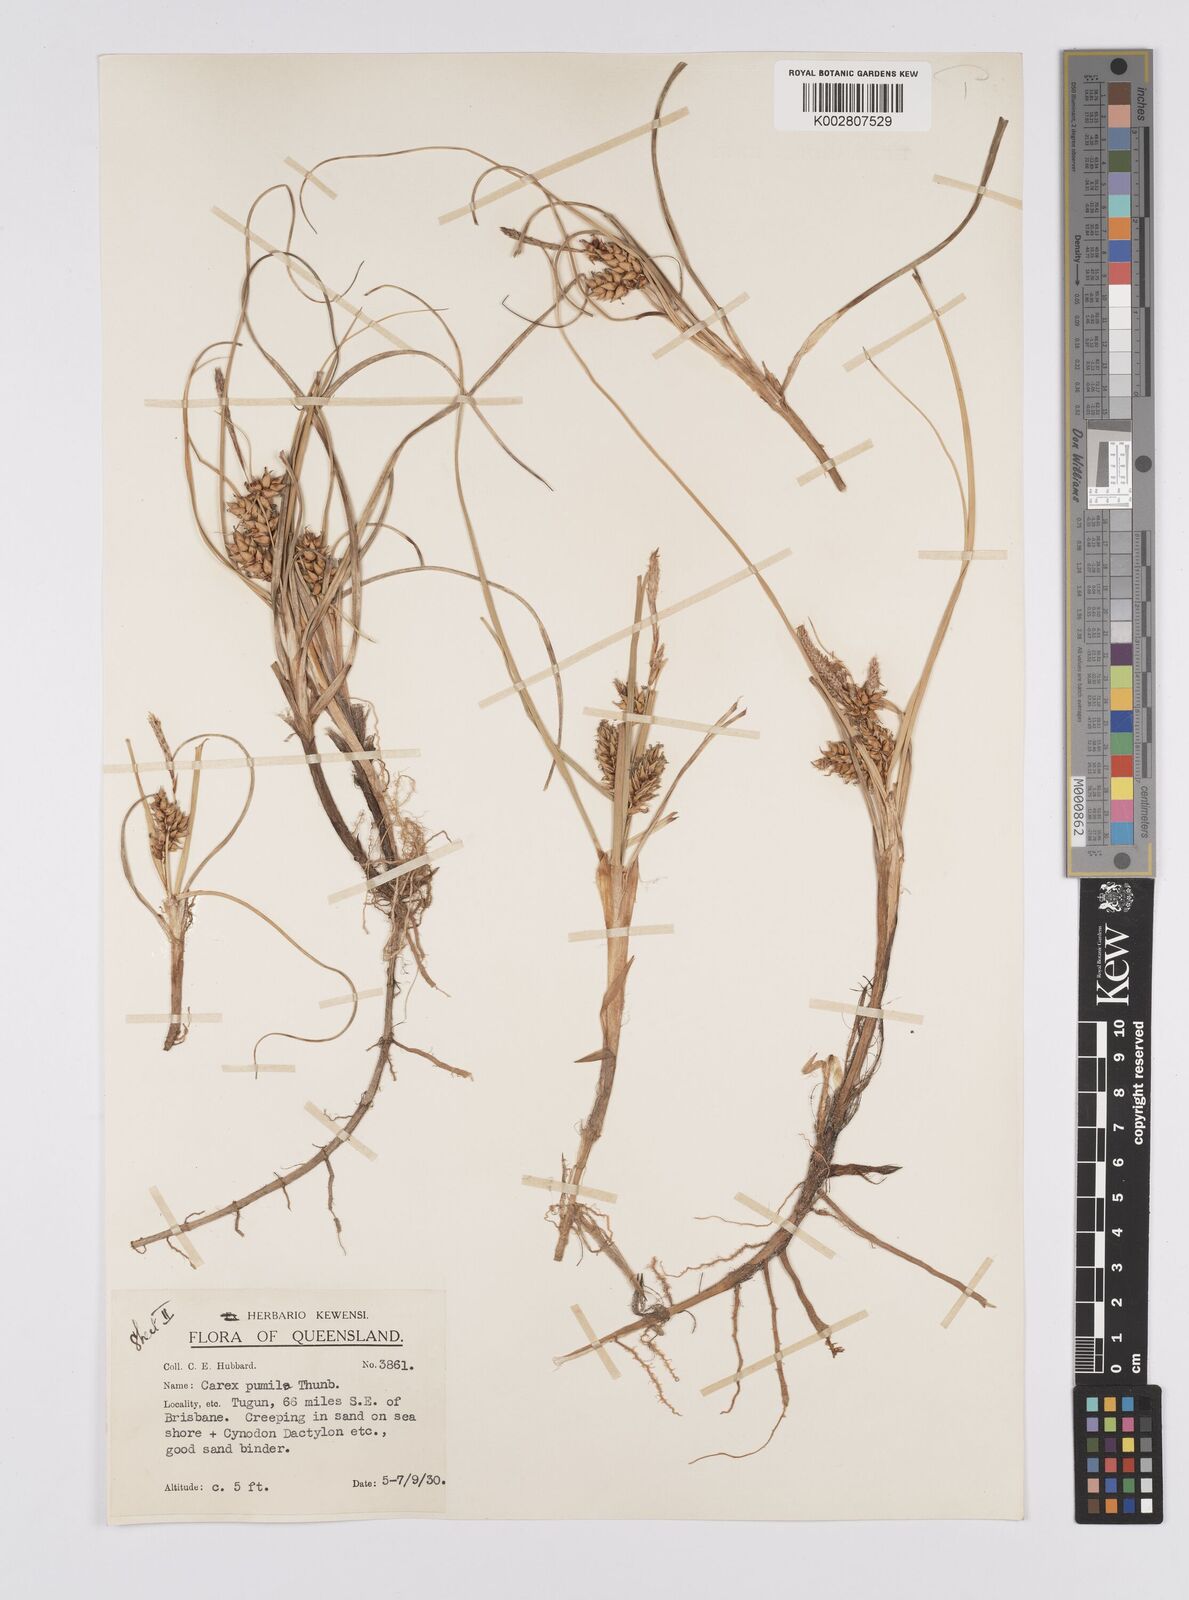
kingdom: Plantae
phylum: Tracheophyta
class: Liliopsida
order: Poales
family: Cyperaceae
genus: Carex
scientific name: Carex pumila
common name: Dwarf sedge
